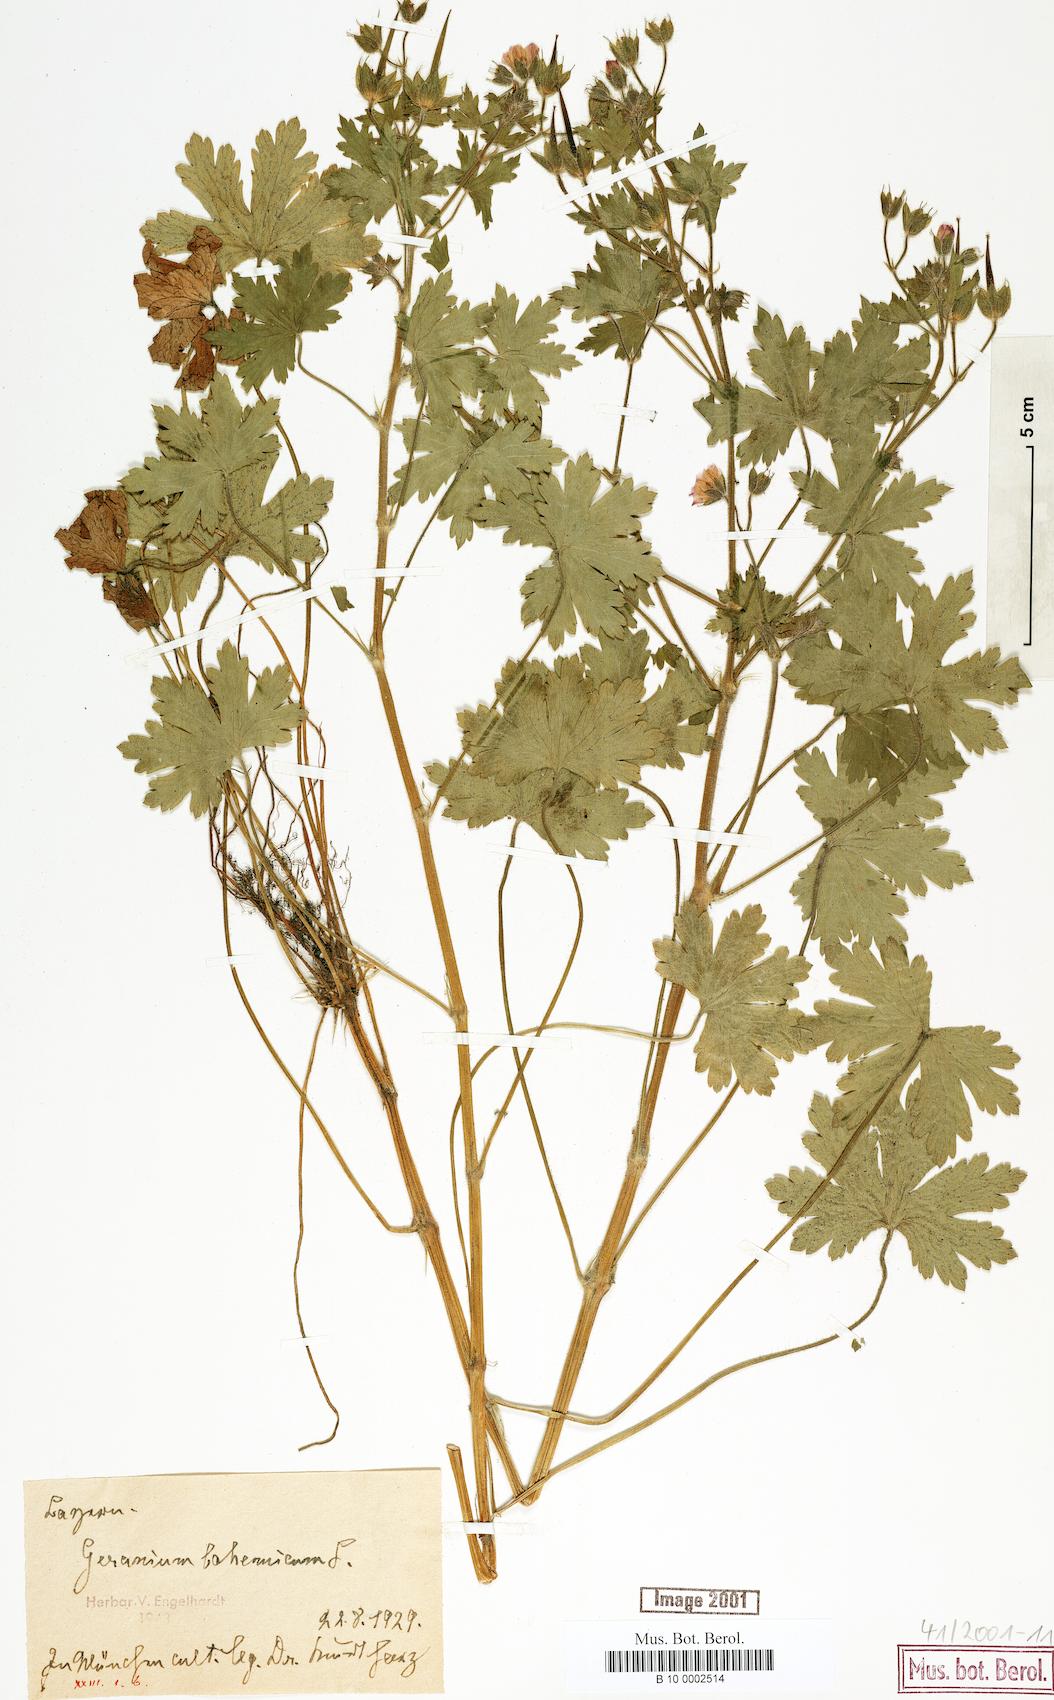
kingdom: Plantae
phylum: Tracheophyta
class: Magnoliopsida
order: Geraniales
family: Geraniaceae
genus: Geranium
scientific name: Geranium bohemicum
